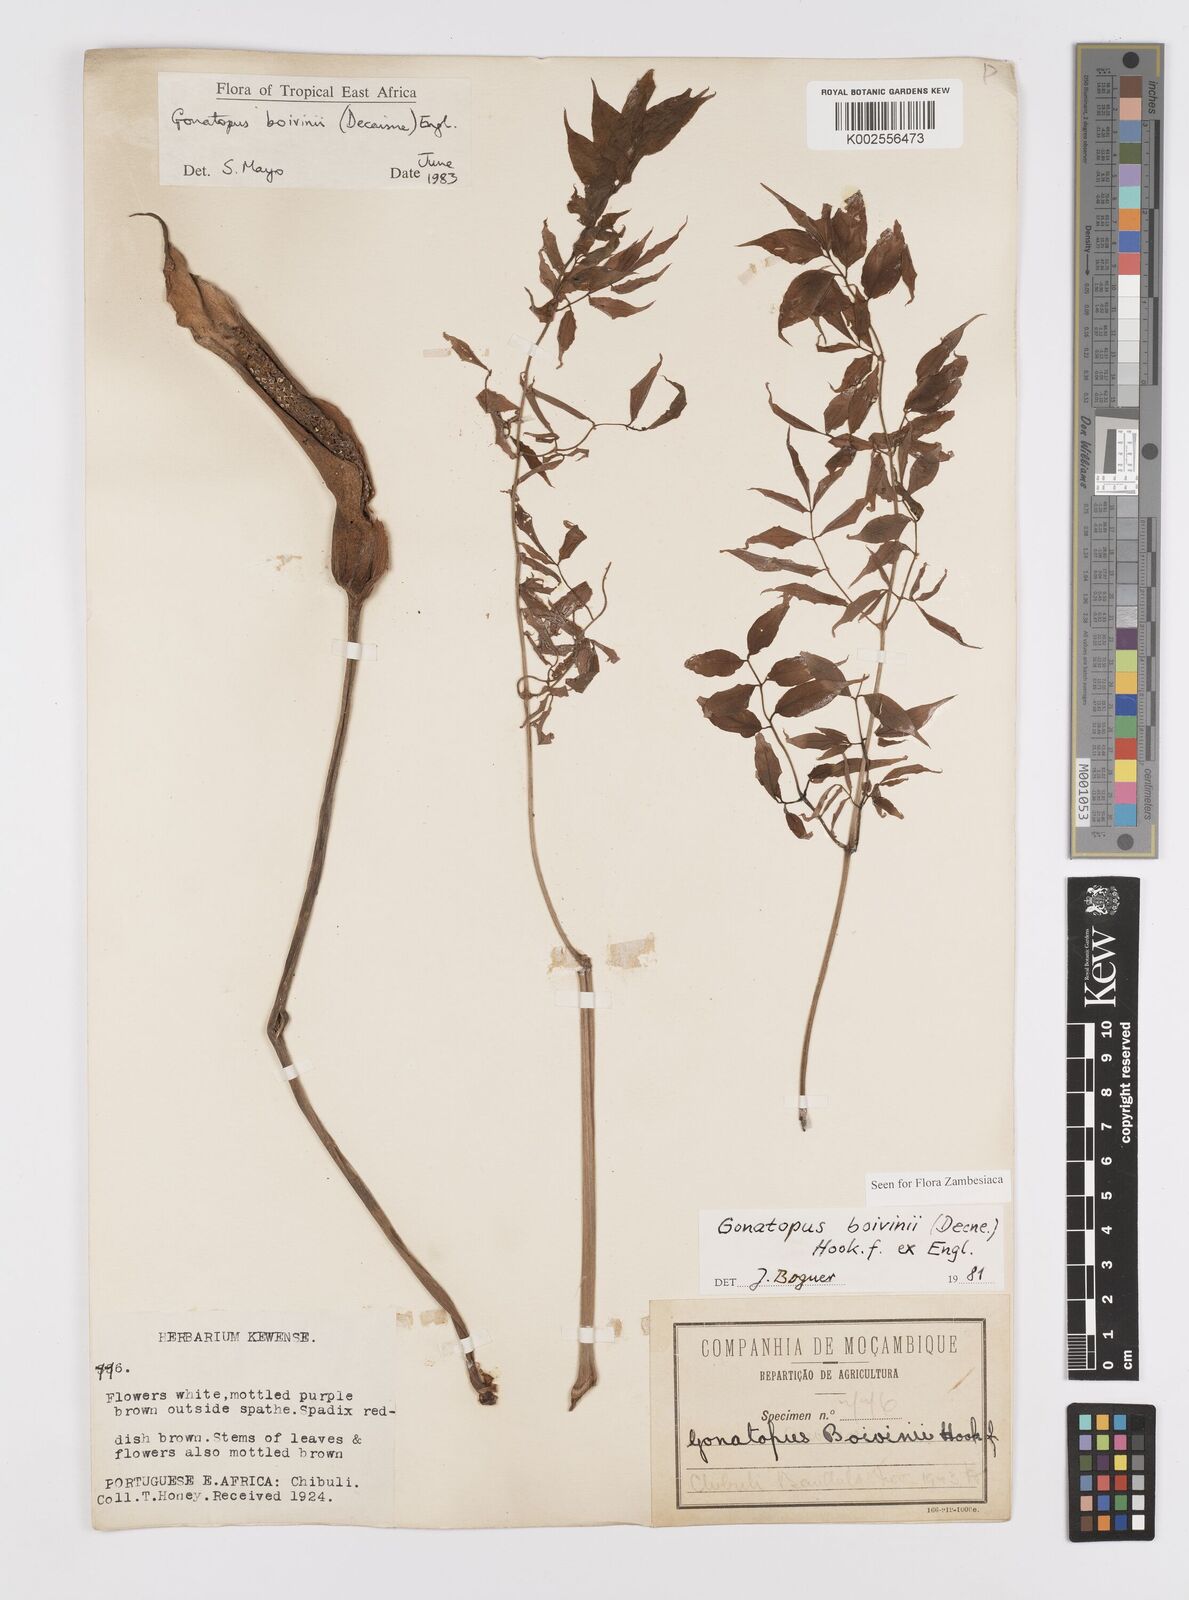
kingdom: Plantae
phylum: Tracheophyta
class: Liliopsida
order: Alismatales
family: Araceae
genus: Gonatopus
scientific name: Gonatopus boivinii
